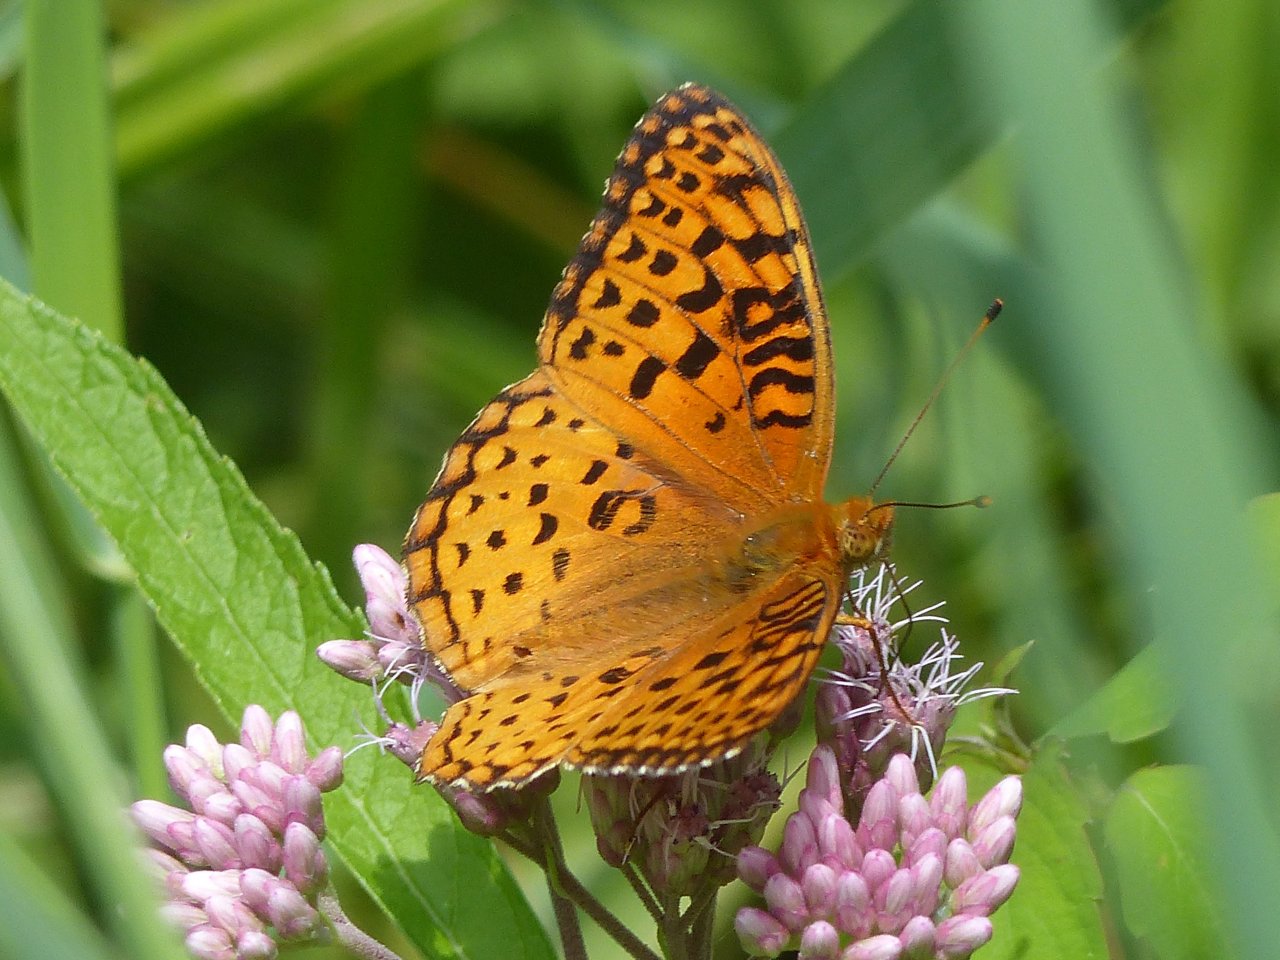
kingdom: Animalia
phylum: Arthropoda
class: Insecta
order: Lepidoptera
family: Nymphalidae
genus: Speyeria
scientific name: Speyeria aphrodite
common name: Aphrodite Fritillary
